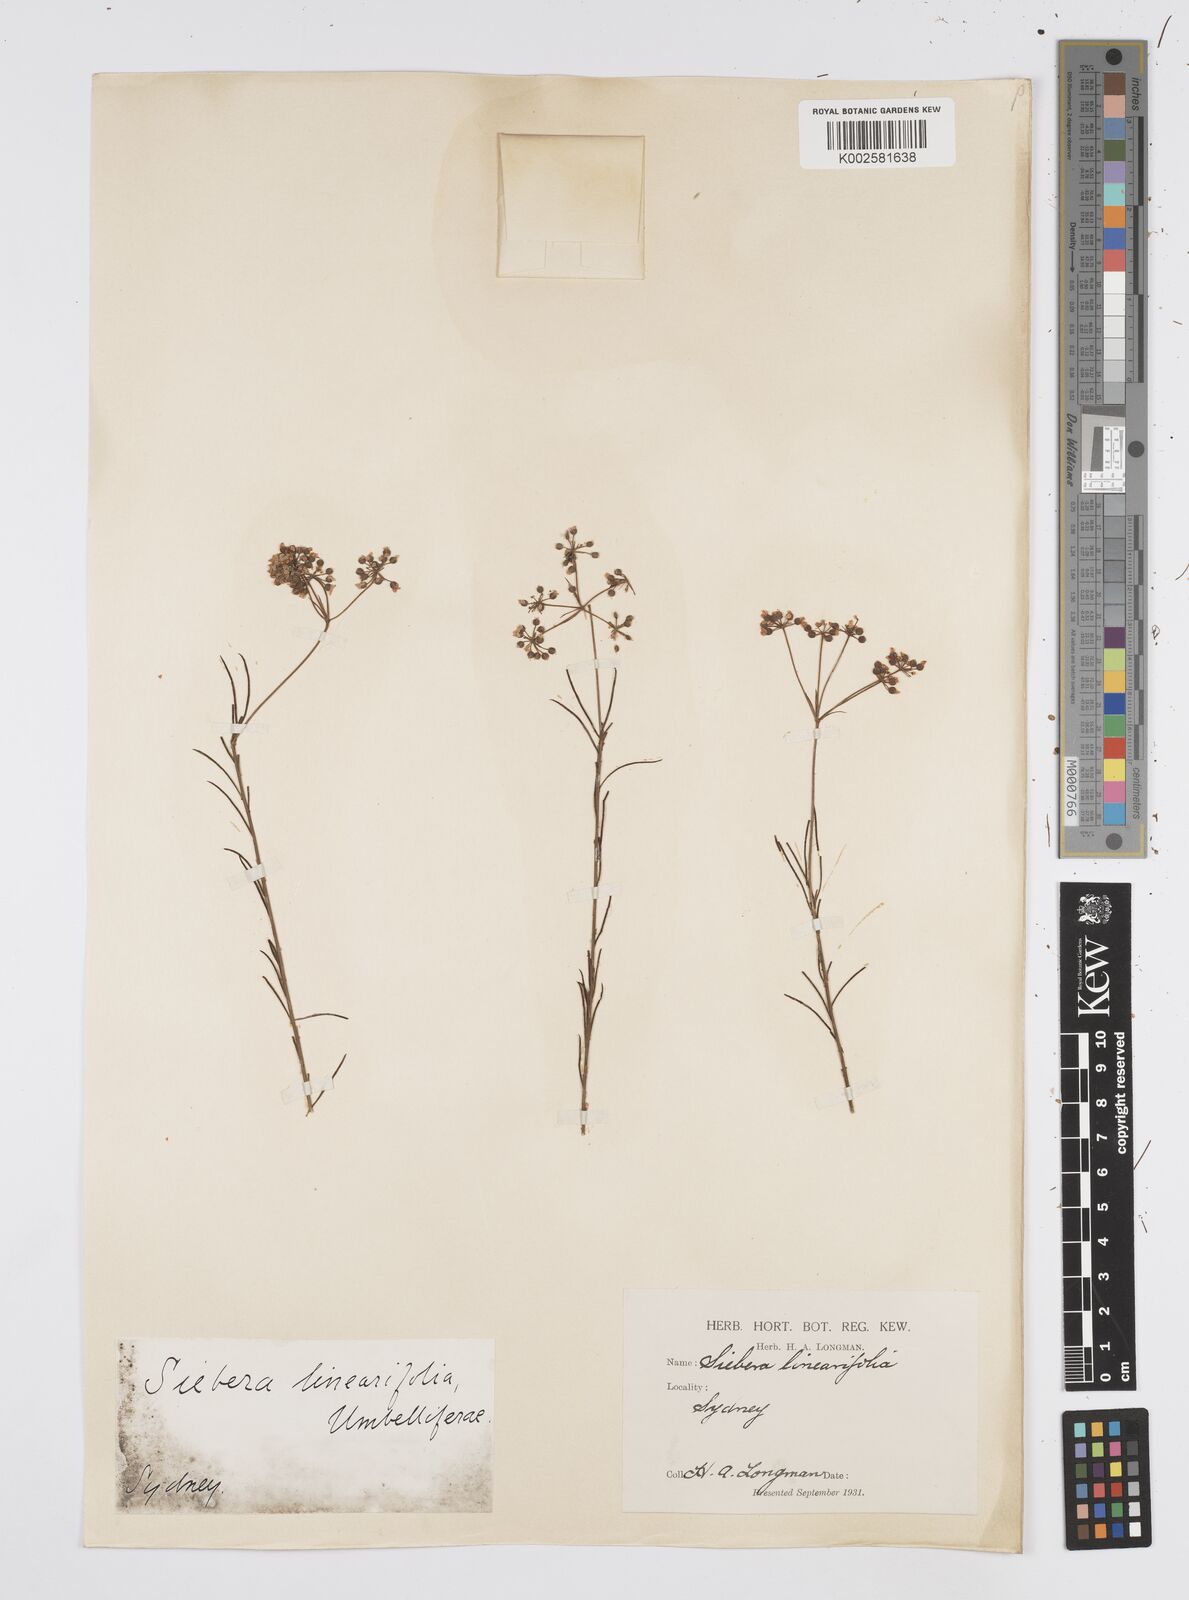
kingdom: Plantae
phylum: Tracheophyta
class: Magnoliopsida
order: Apiales
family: Apiaceae
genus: Platysace
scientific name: Platysace linearifolia
